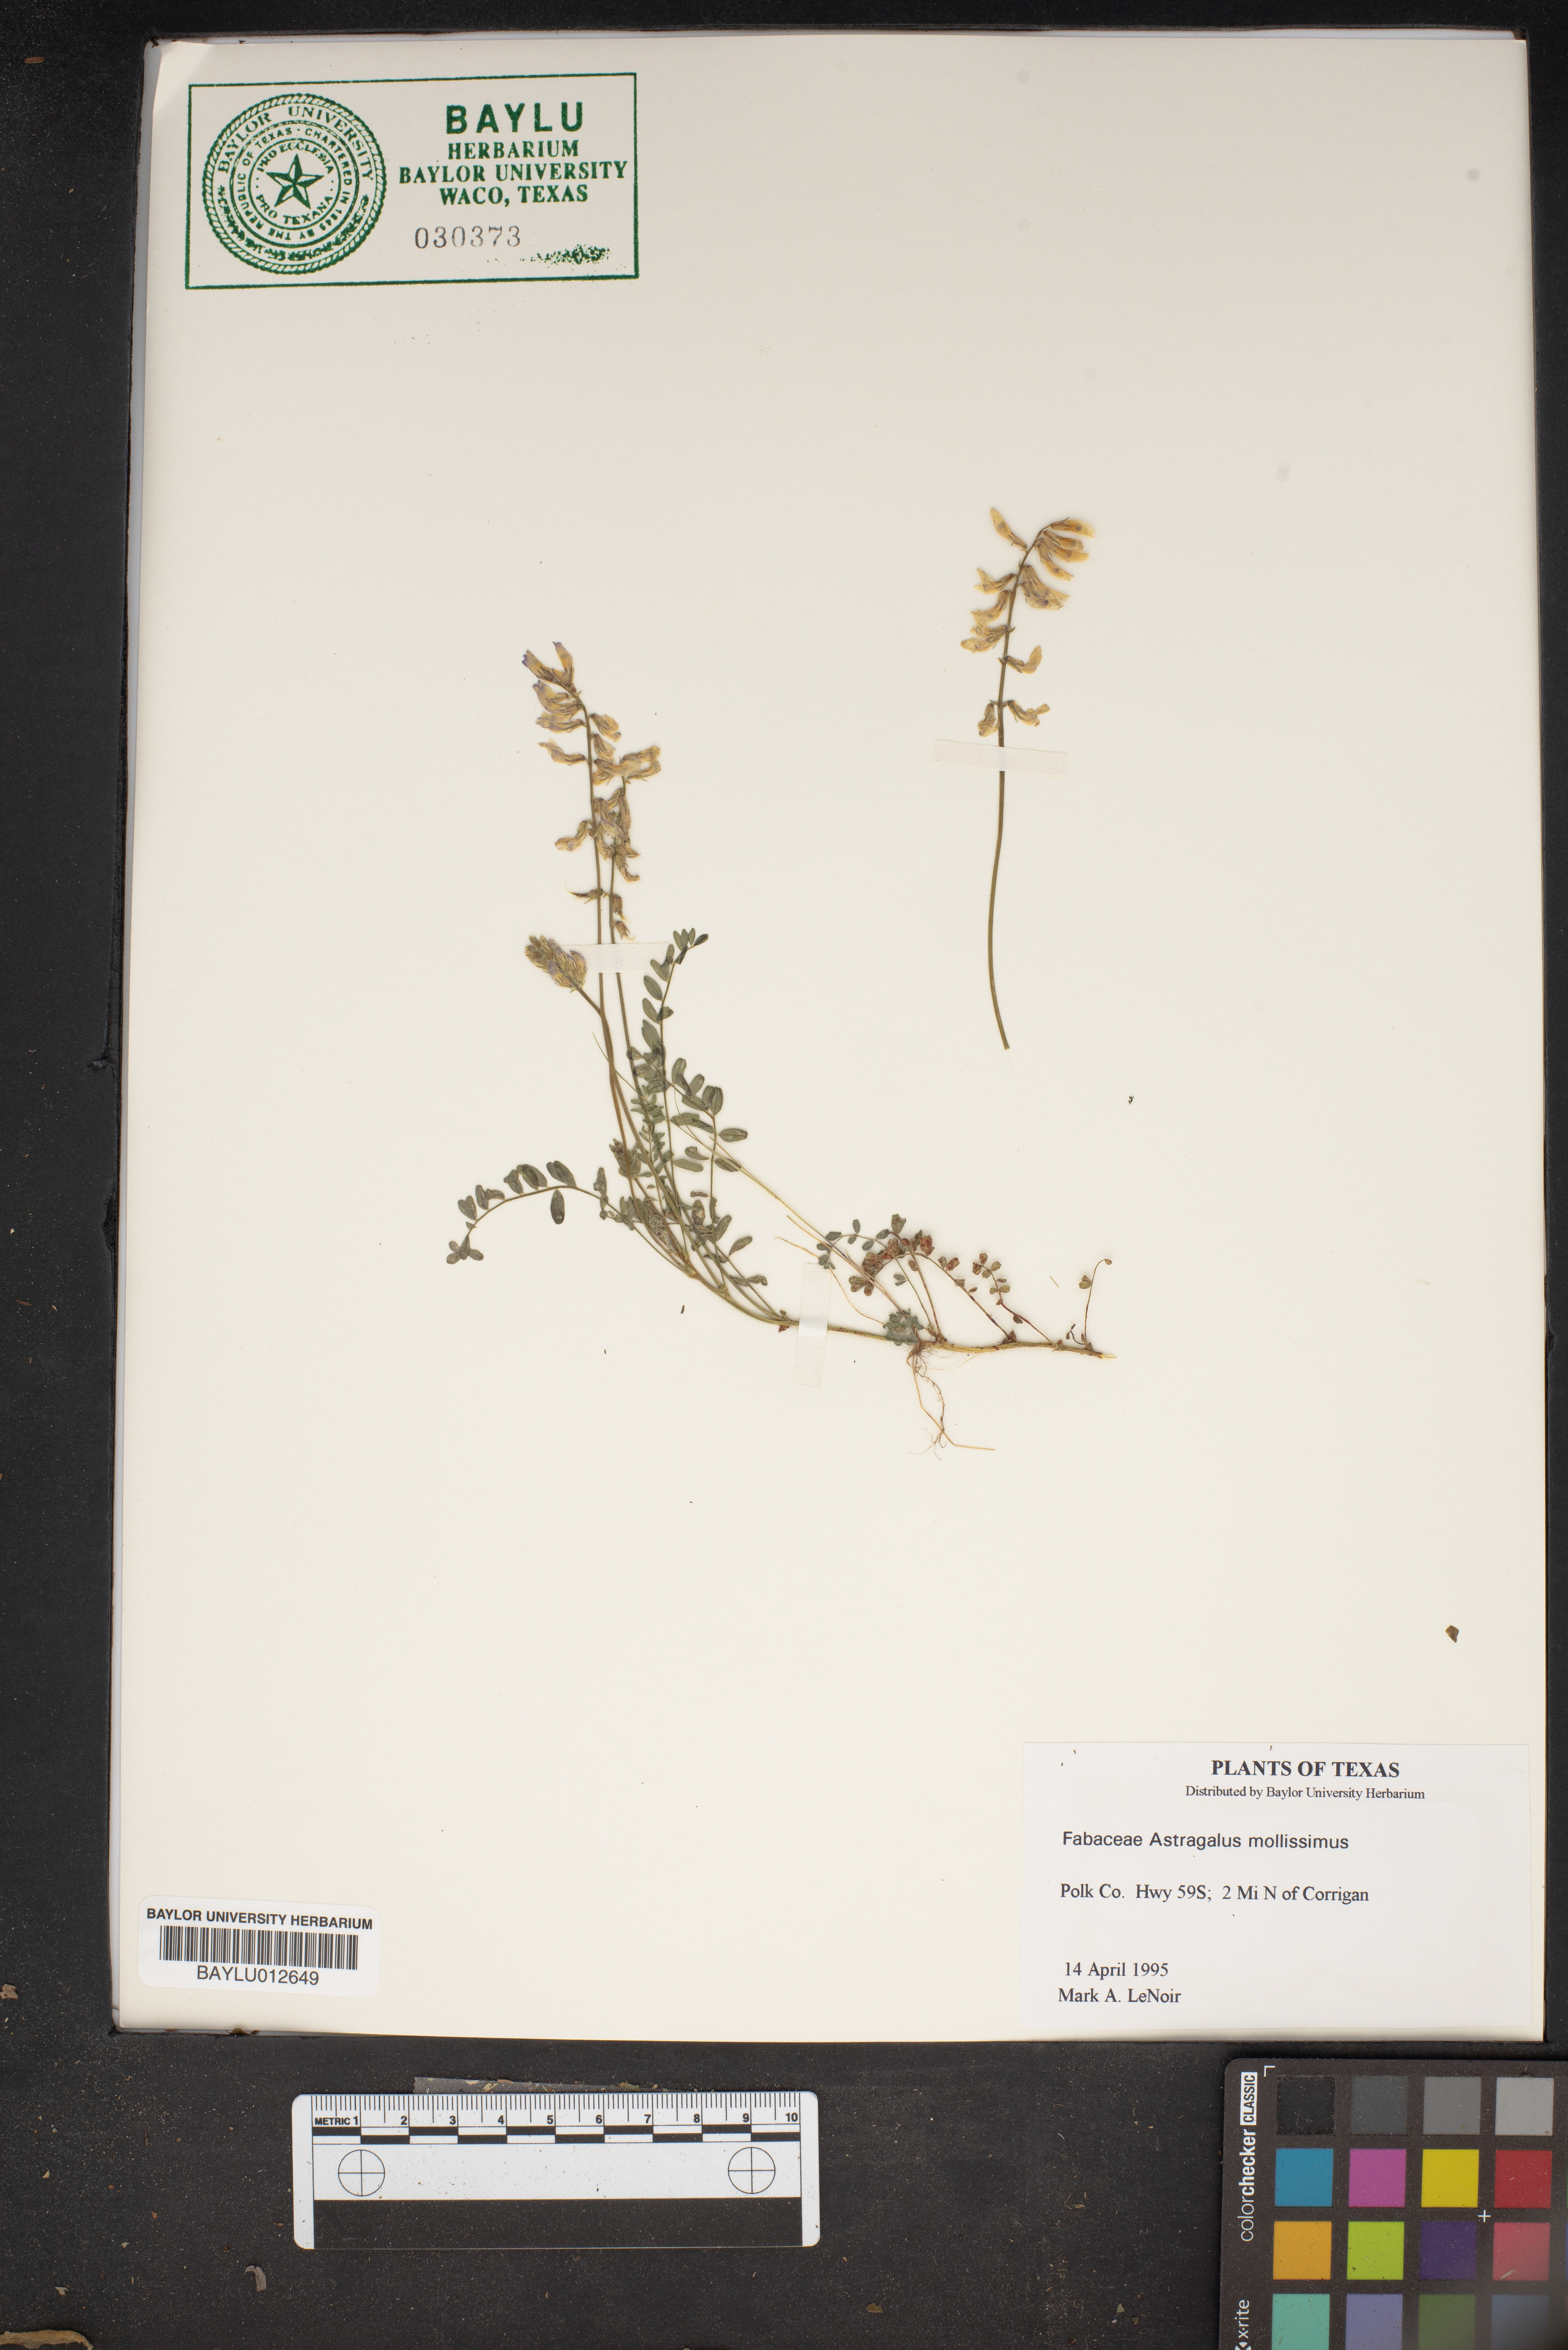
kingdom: Plantae
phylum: Tracheophyta
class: Magnoliopsida
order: Fabales
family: Fabaceae
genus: Astragalus
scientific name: Astragalus mollissimus
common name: Woolly locoweed
